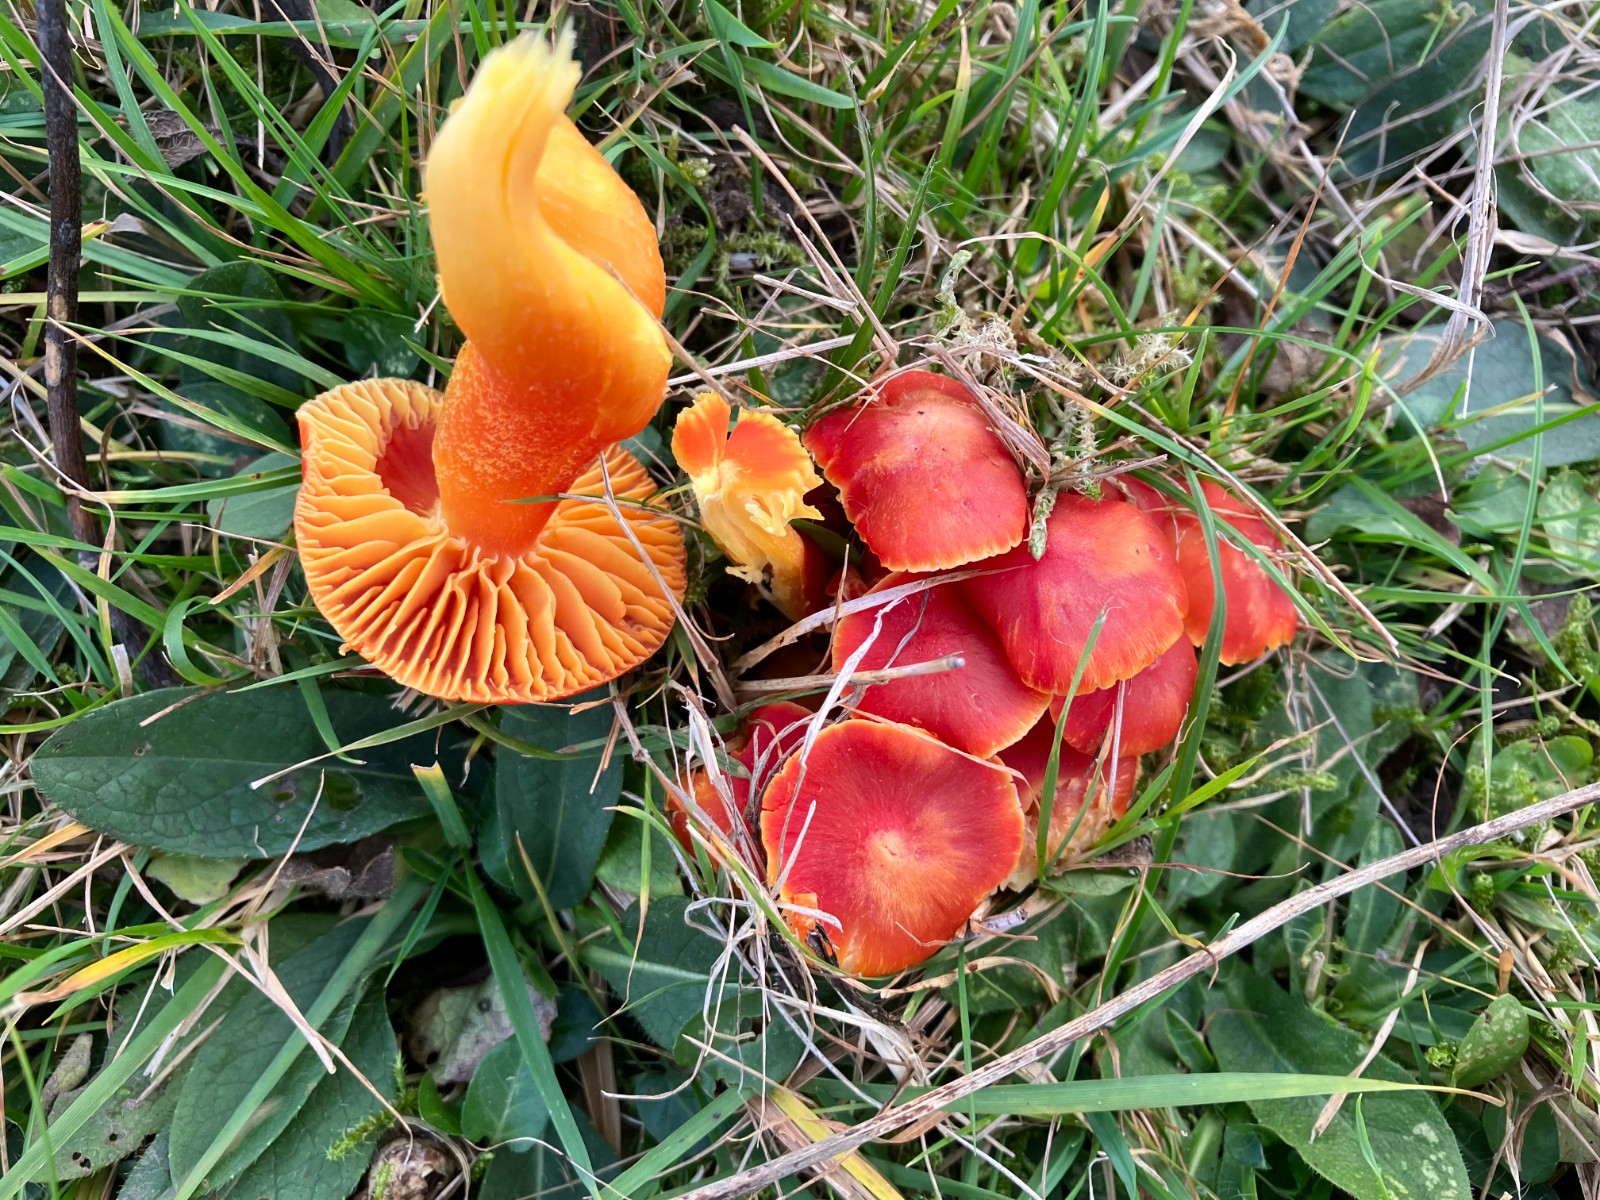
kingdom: Fungi
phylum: Basidiomycota
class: Agaricomycetes
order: Agaricales
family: Hygrophoraceae
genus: Hygrocybe
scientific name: Hygrocybe coccinea
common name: cinnober-vokshat
